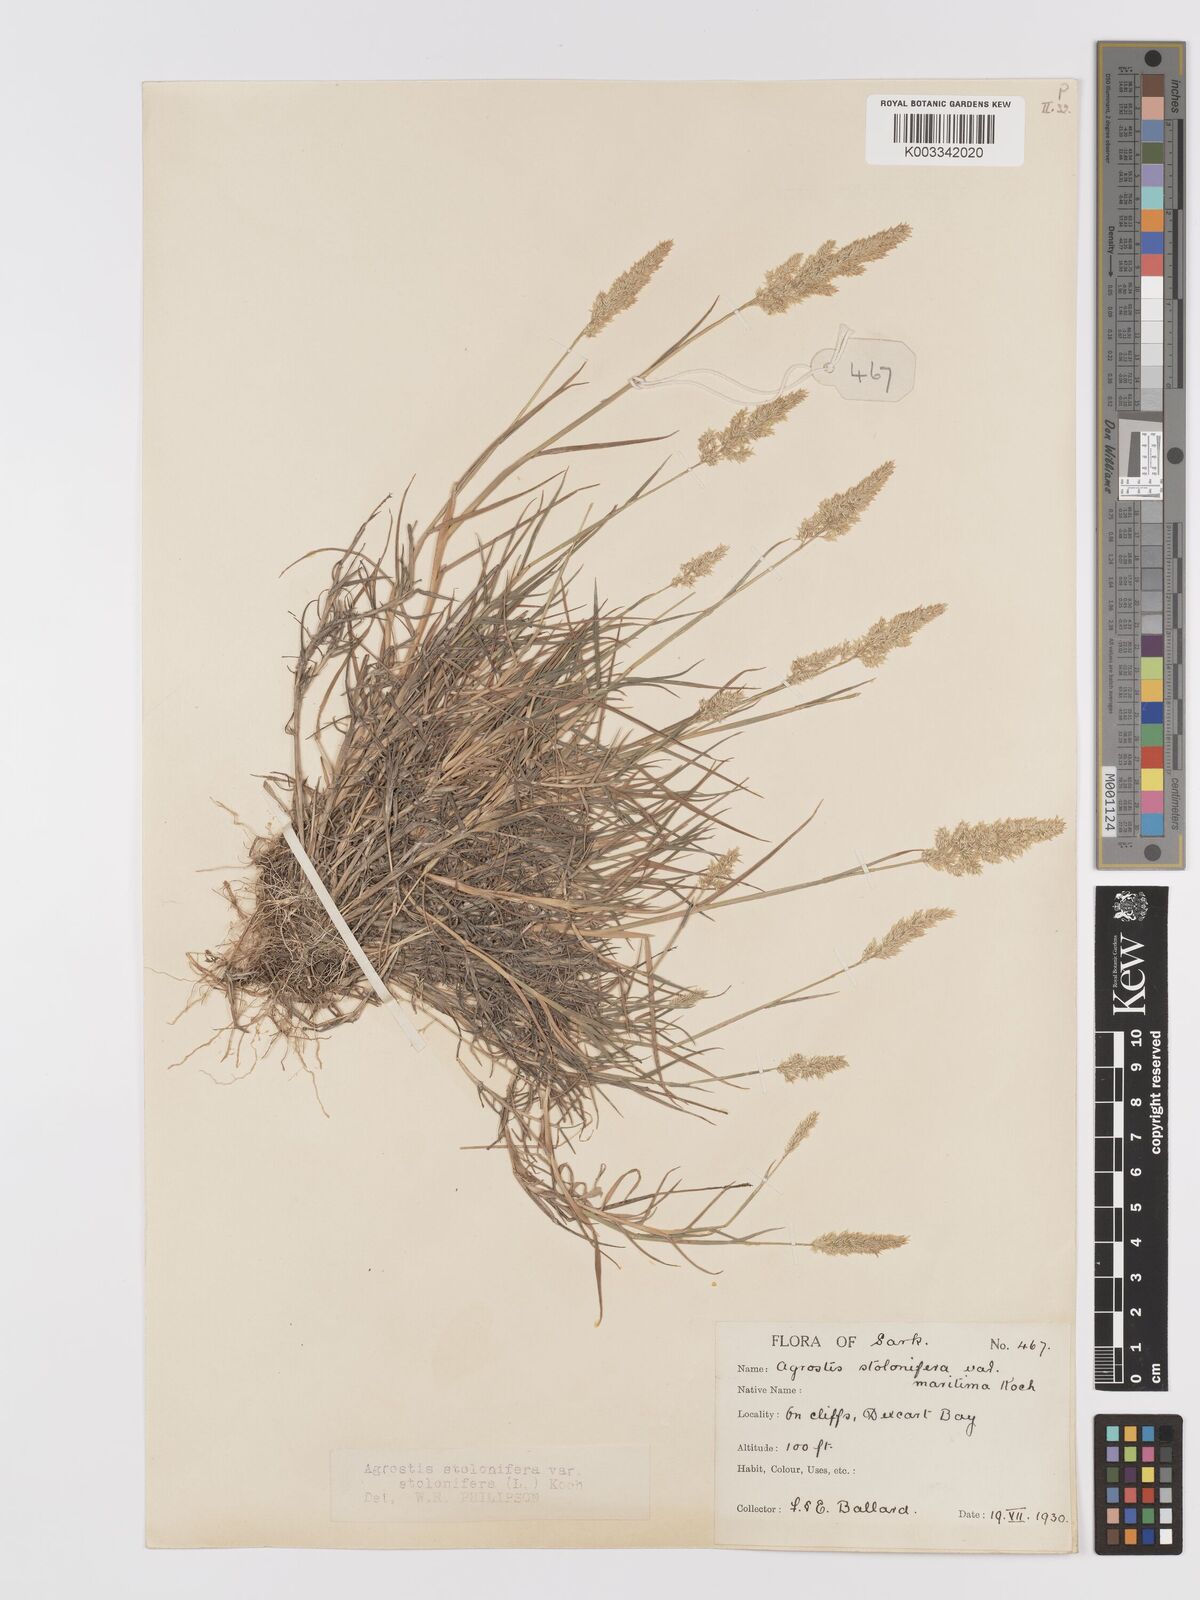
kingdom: Plantae
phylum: Tracheophyta
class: Liliopsida
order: Poales
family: Poaceae
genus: Agrostis
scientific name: Agrostis stolonifera
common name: Creeping bentgrass
